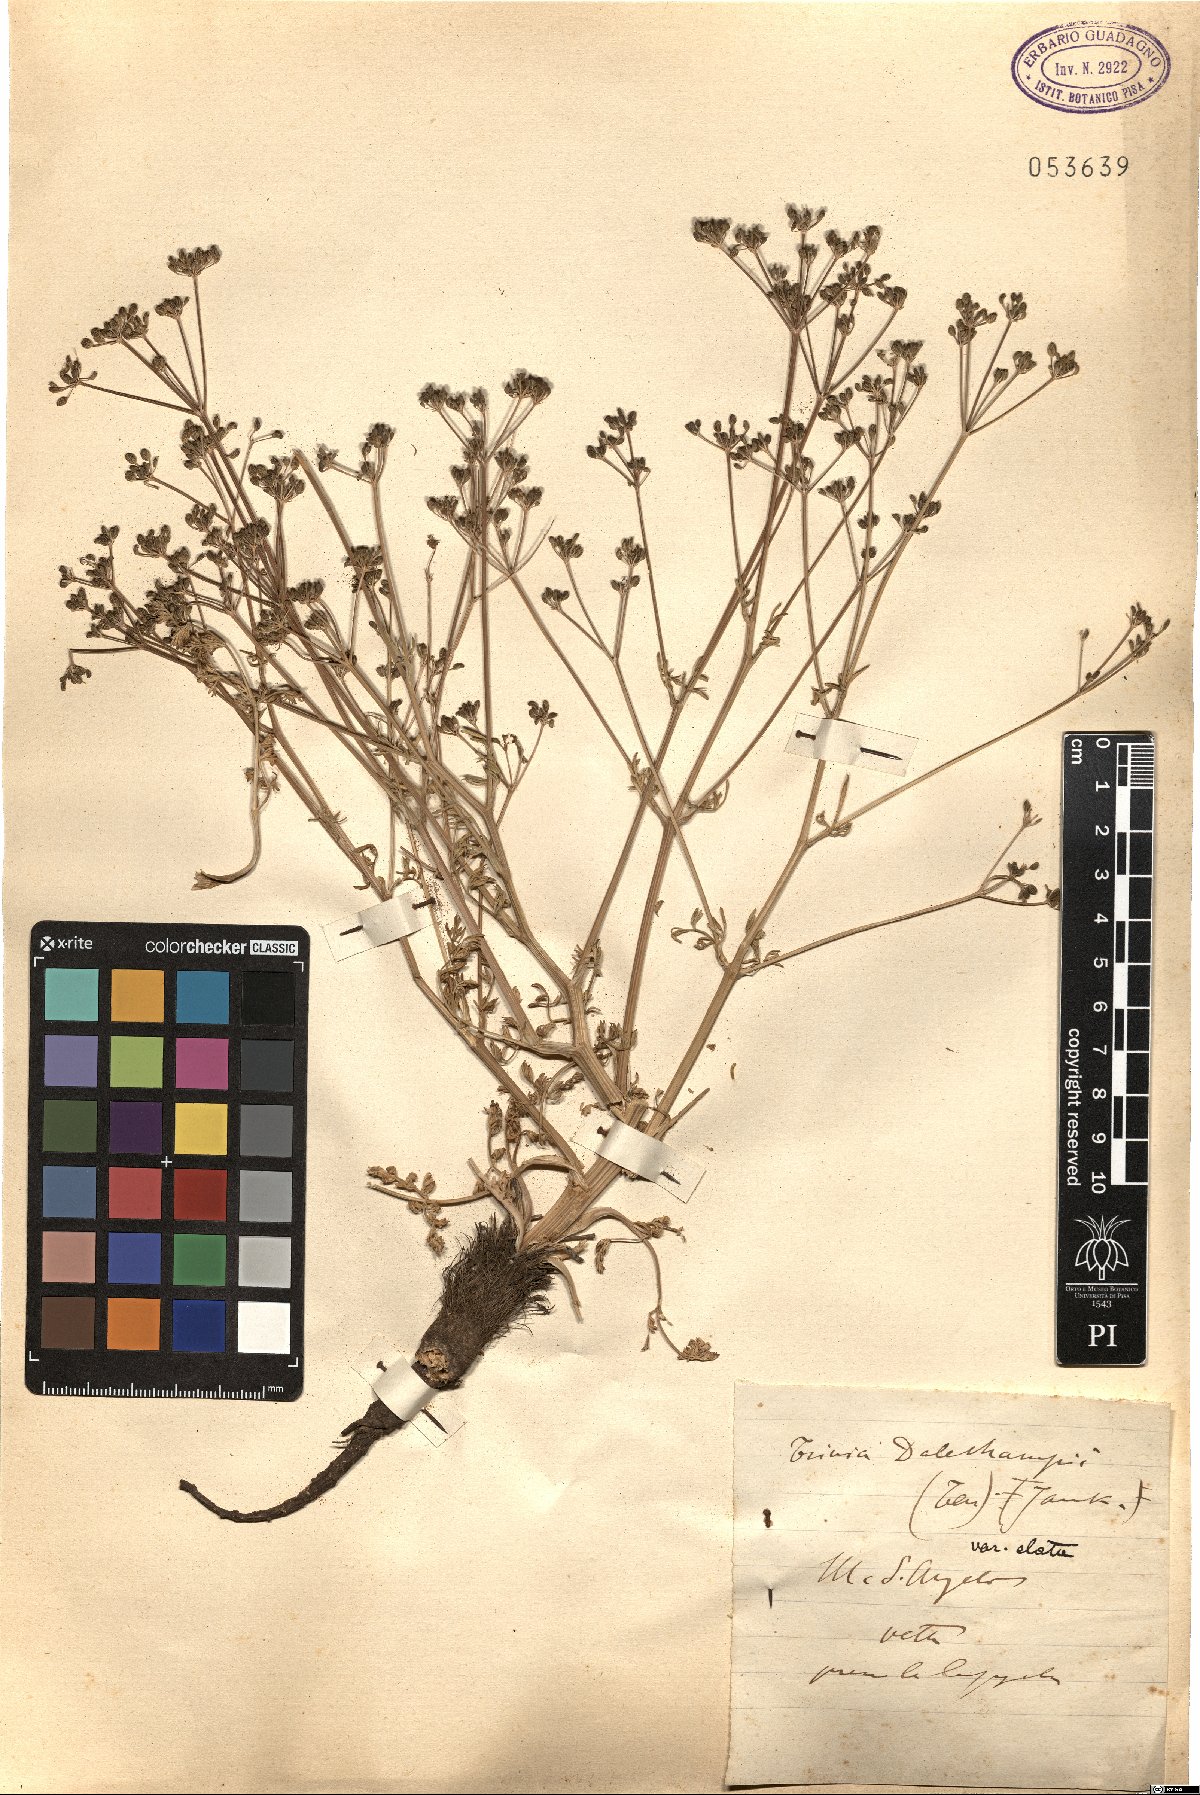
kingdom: Plantae
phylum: Tracheophyta
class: Magnoliopsida
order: Apiales
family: Apiaceae
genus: Trinia
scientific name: Trinia dalechampii
